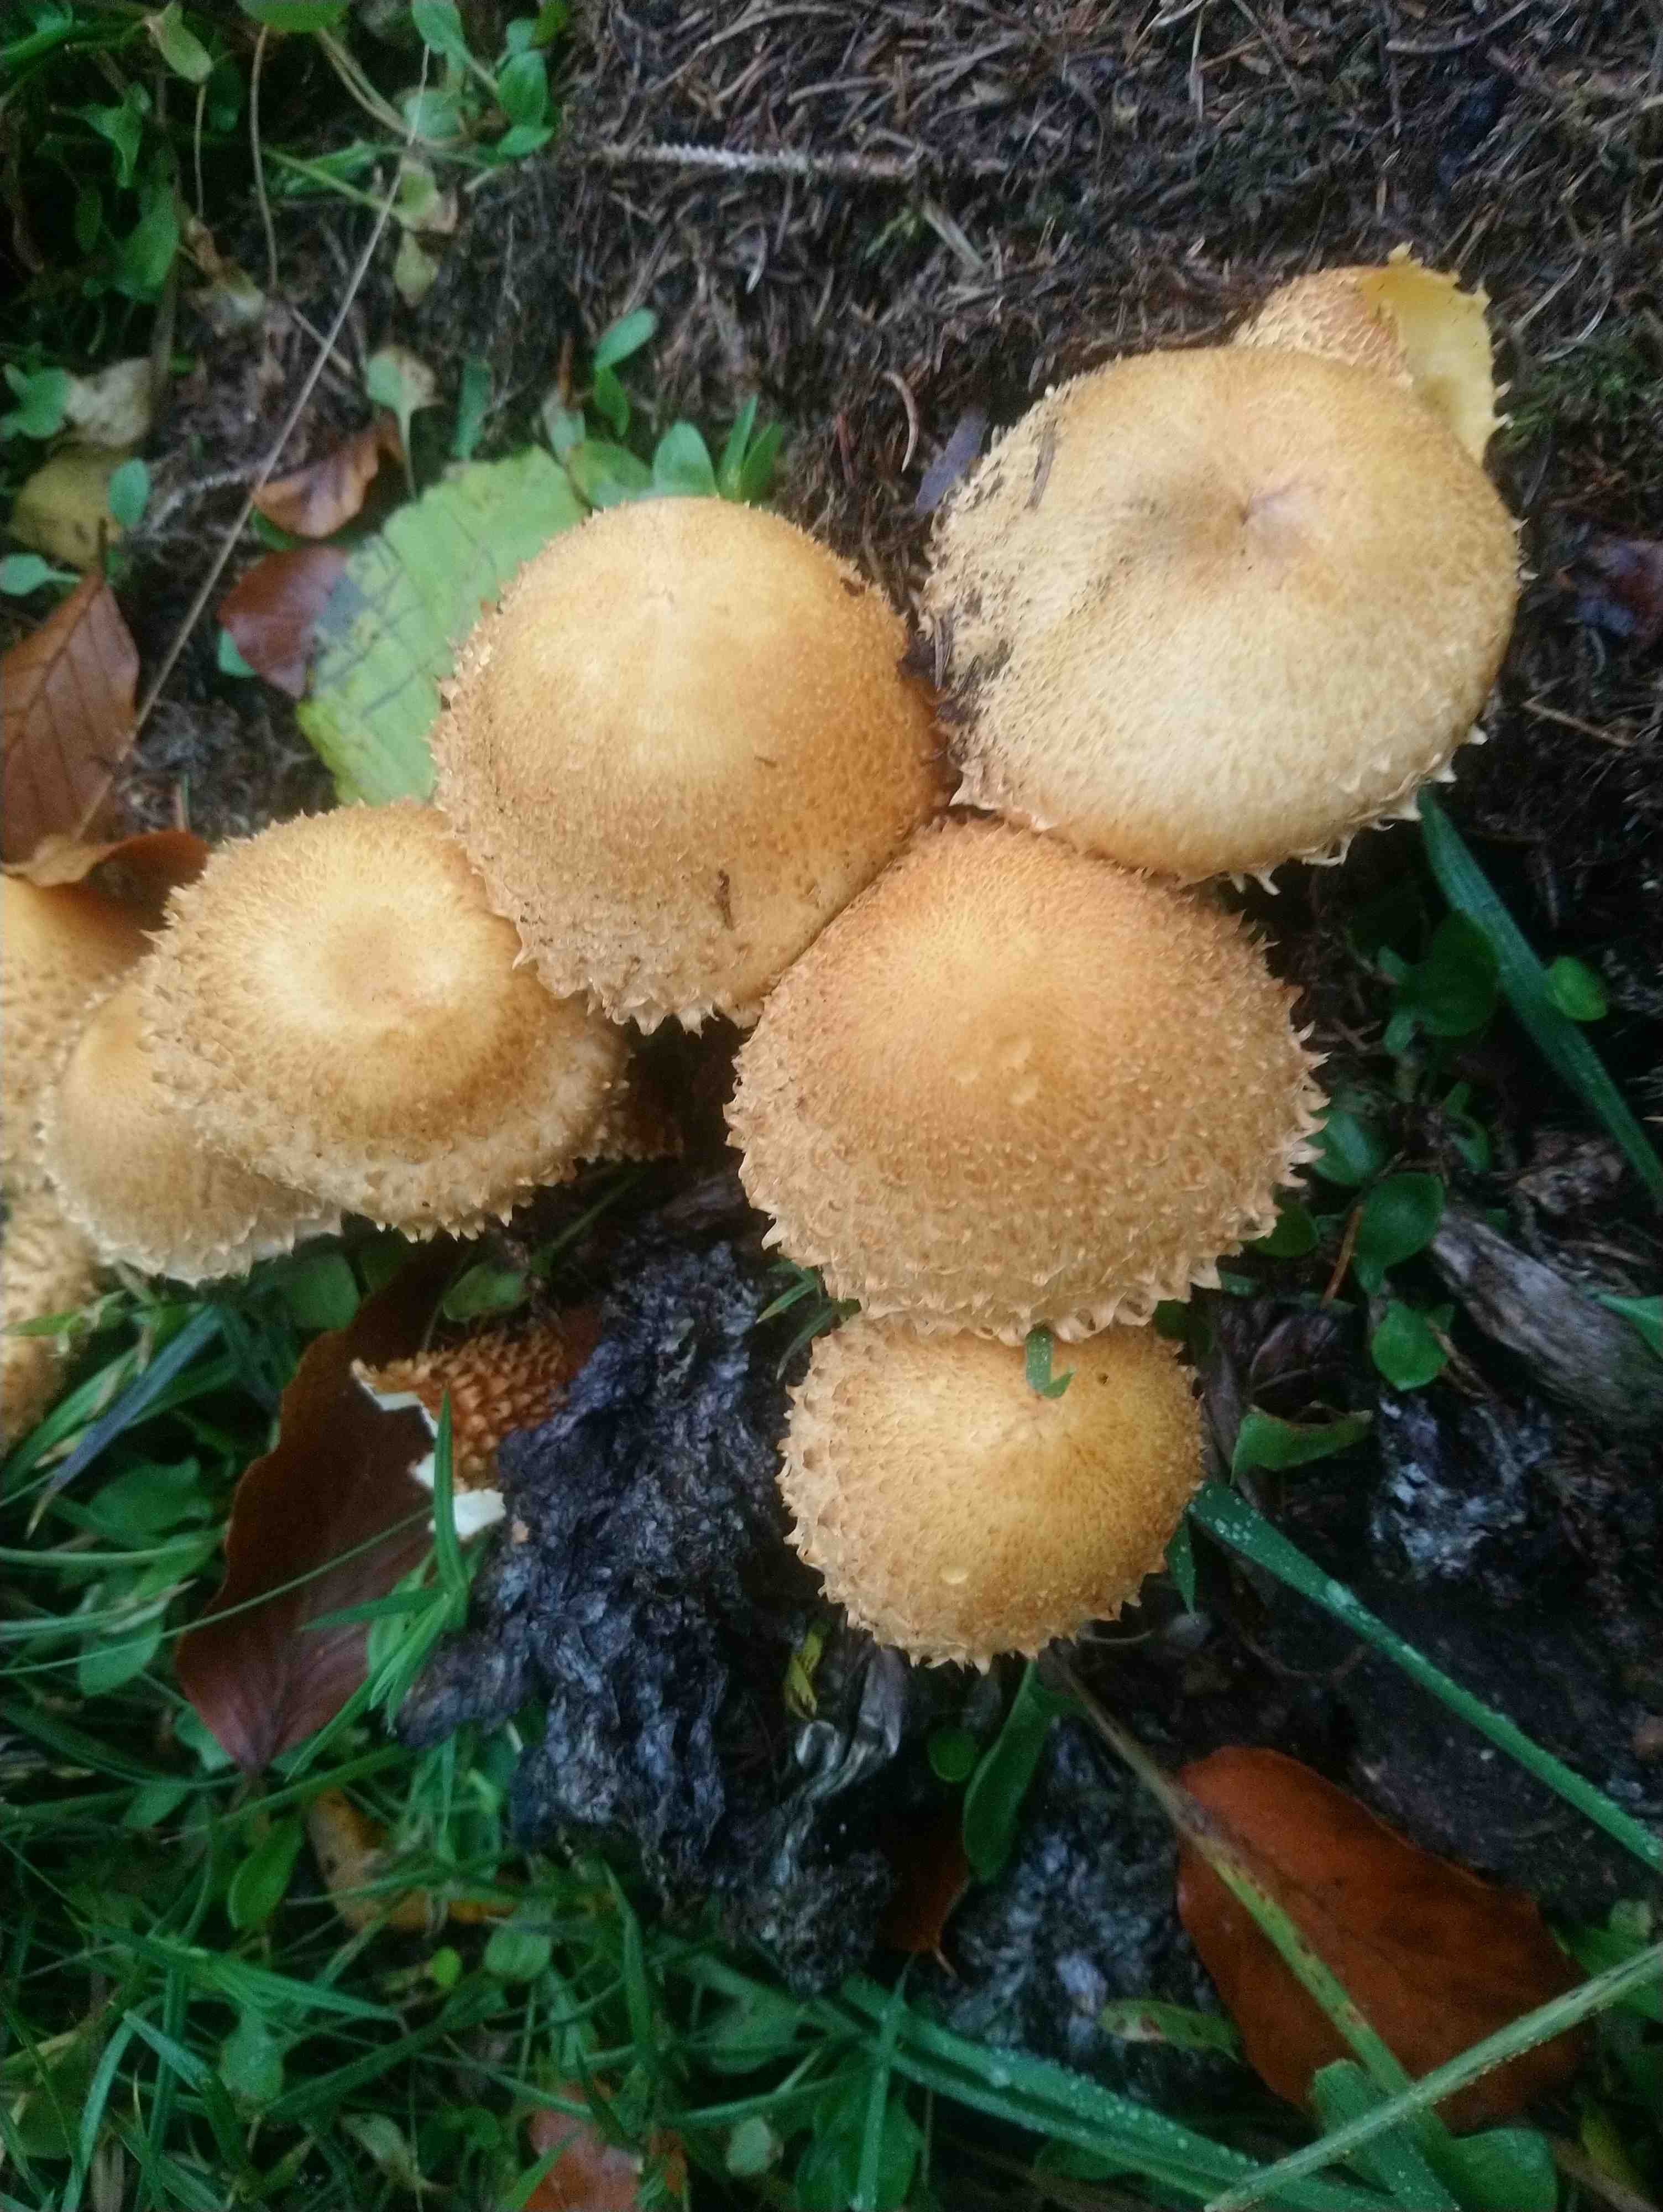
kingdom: Fungi
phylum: Basidiomycota
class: Agaricomycetes
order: Agaricales
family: Strophariaceae
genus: Pholiota
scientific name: Pholiota squarrosa
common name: krumskællet skælhat
